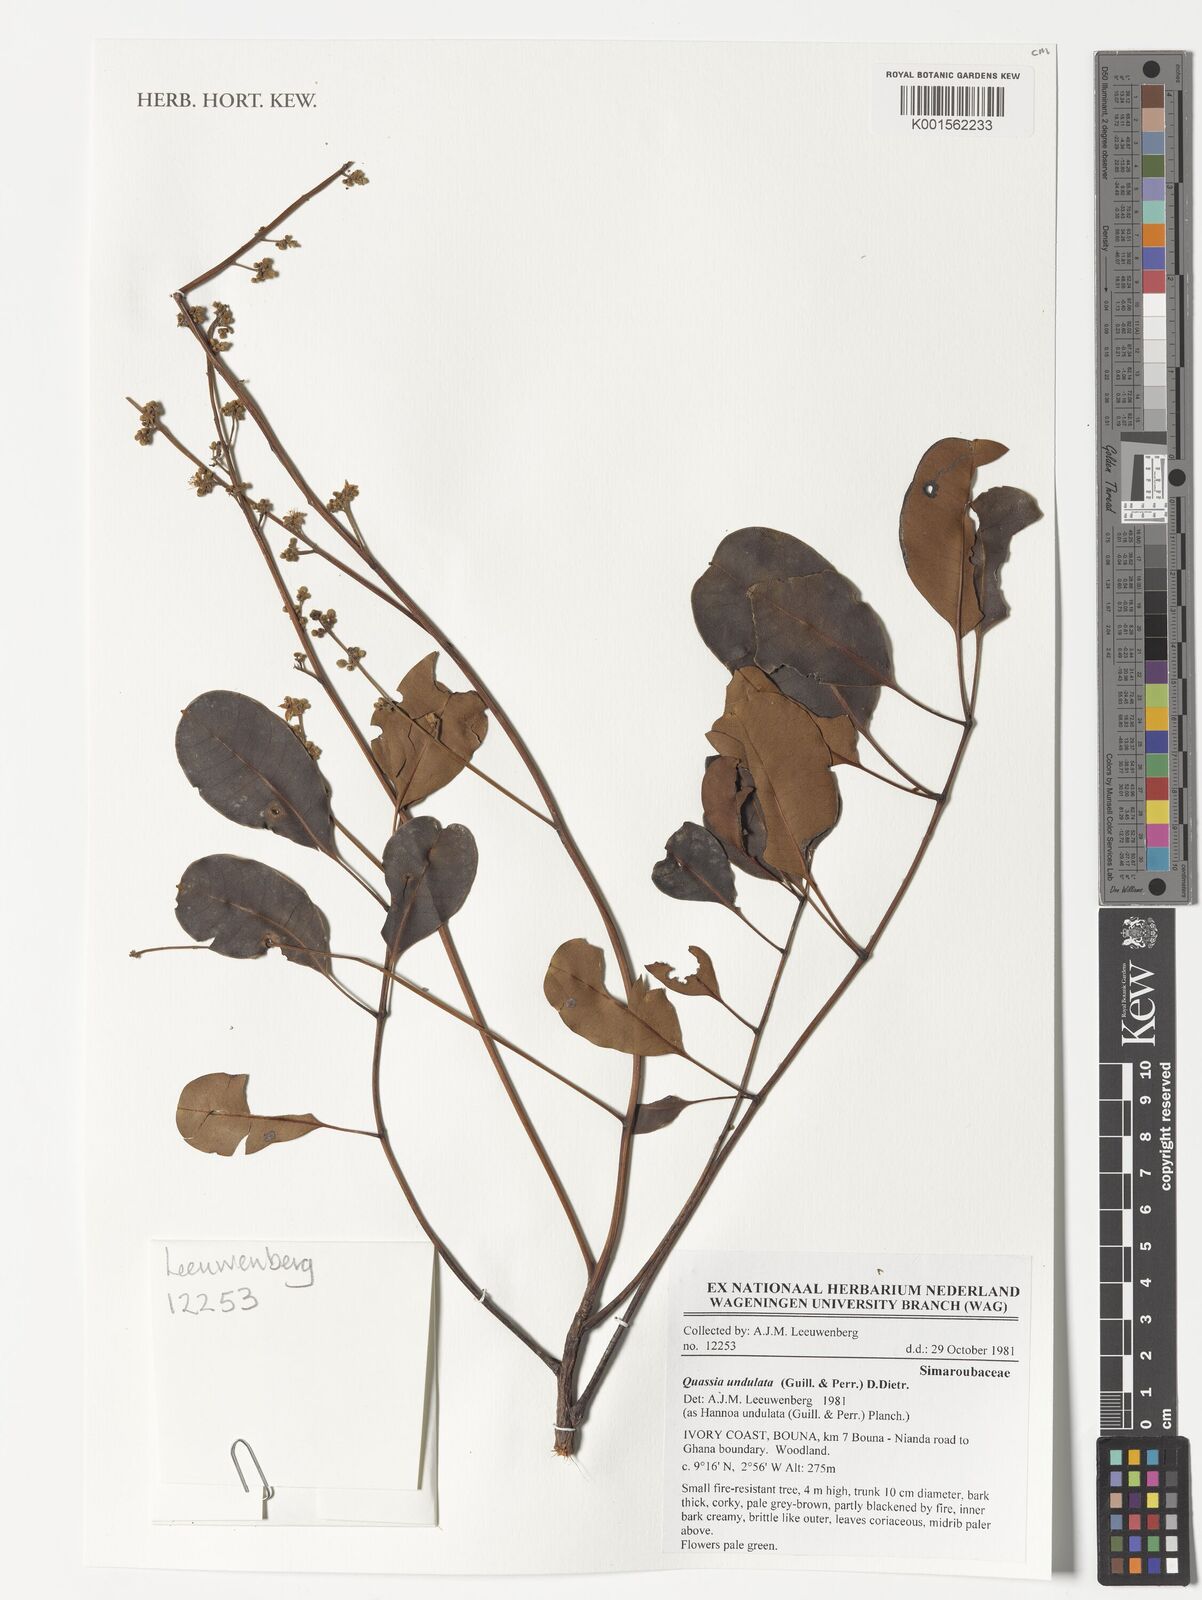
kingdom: Plantae
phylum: Tracheophyta
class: Magnoliopsida
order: Sapindales
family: Simaroubaceae
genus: Odyendyea
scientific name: Odyendyea klaineana
